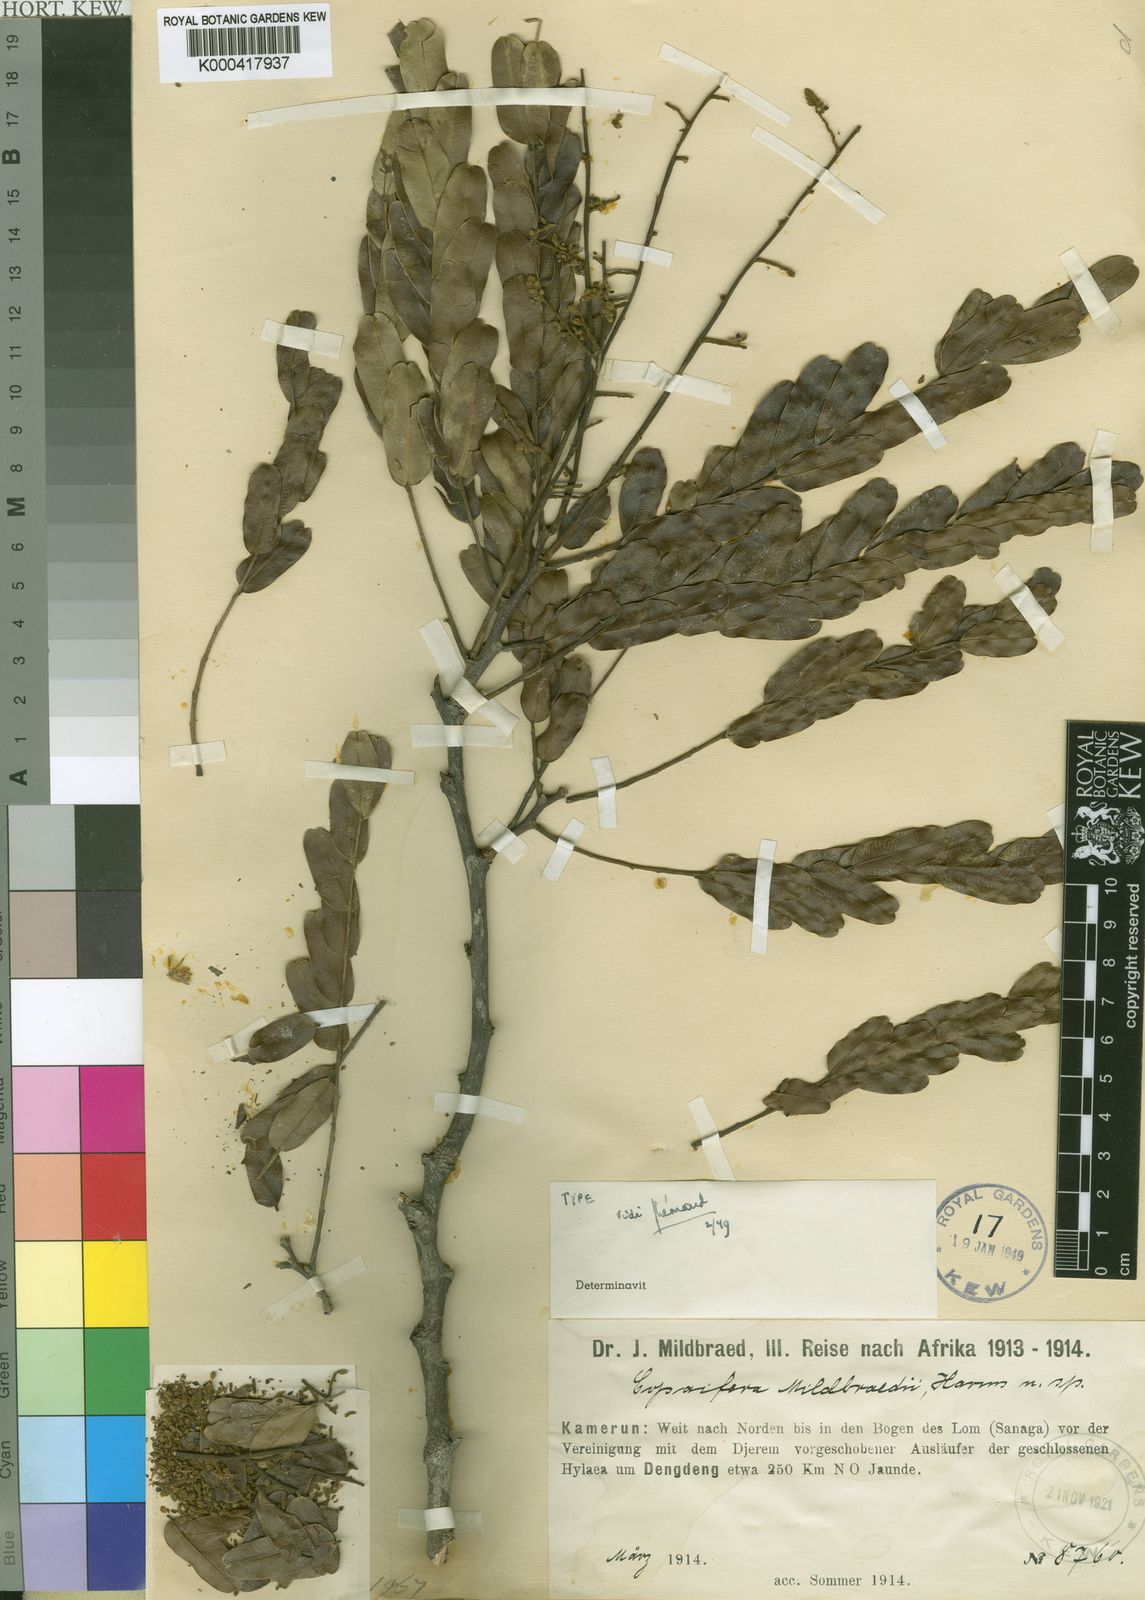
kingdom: Plantae
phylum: Tracheophyta
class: Magnoliopsida
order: Fabales
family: Fabaceae
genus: Copaifera
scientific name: Copaifera mildbraedii
